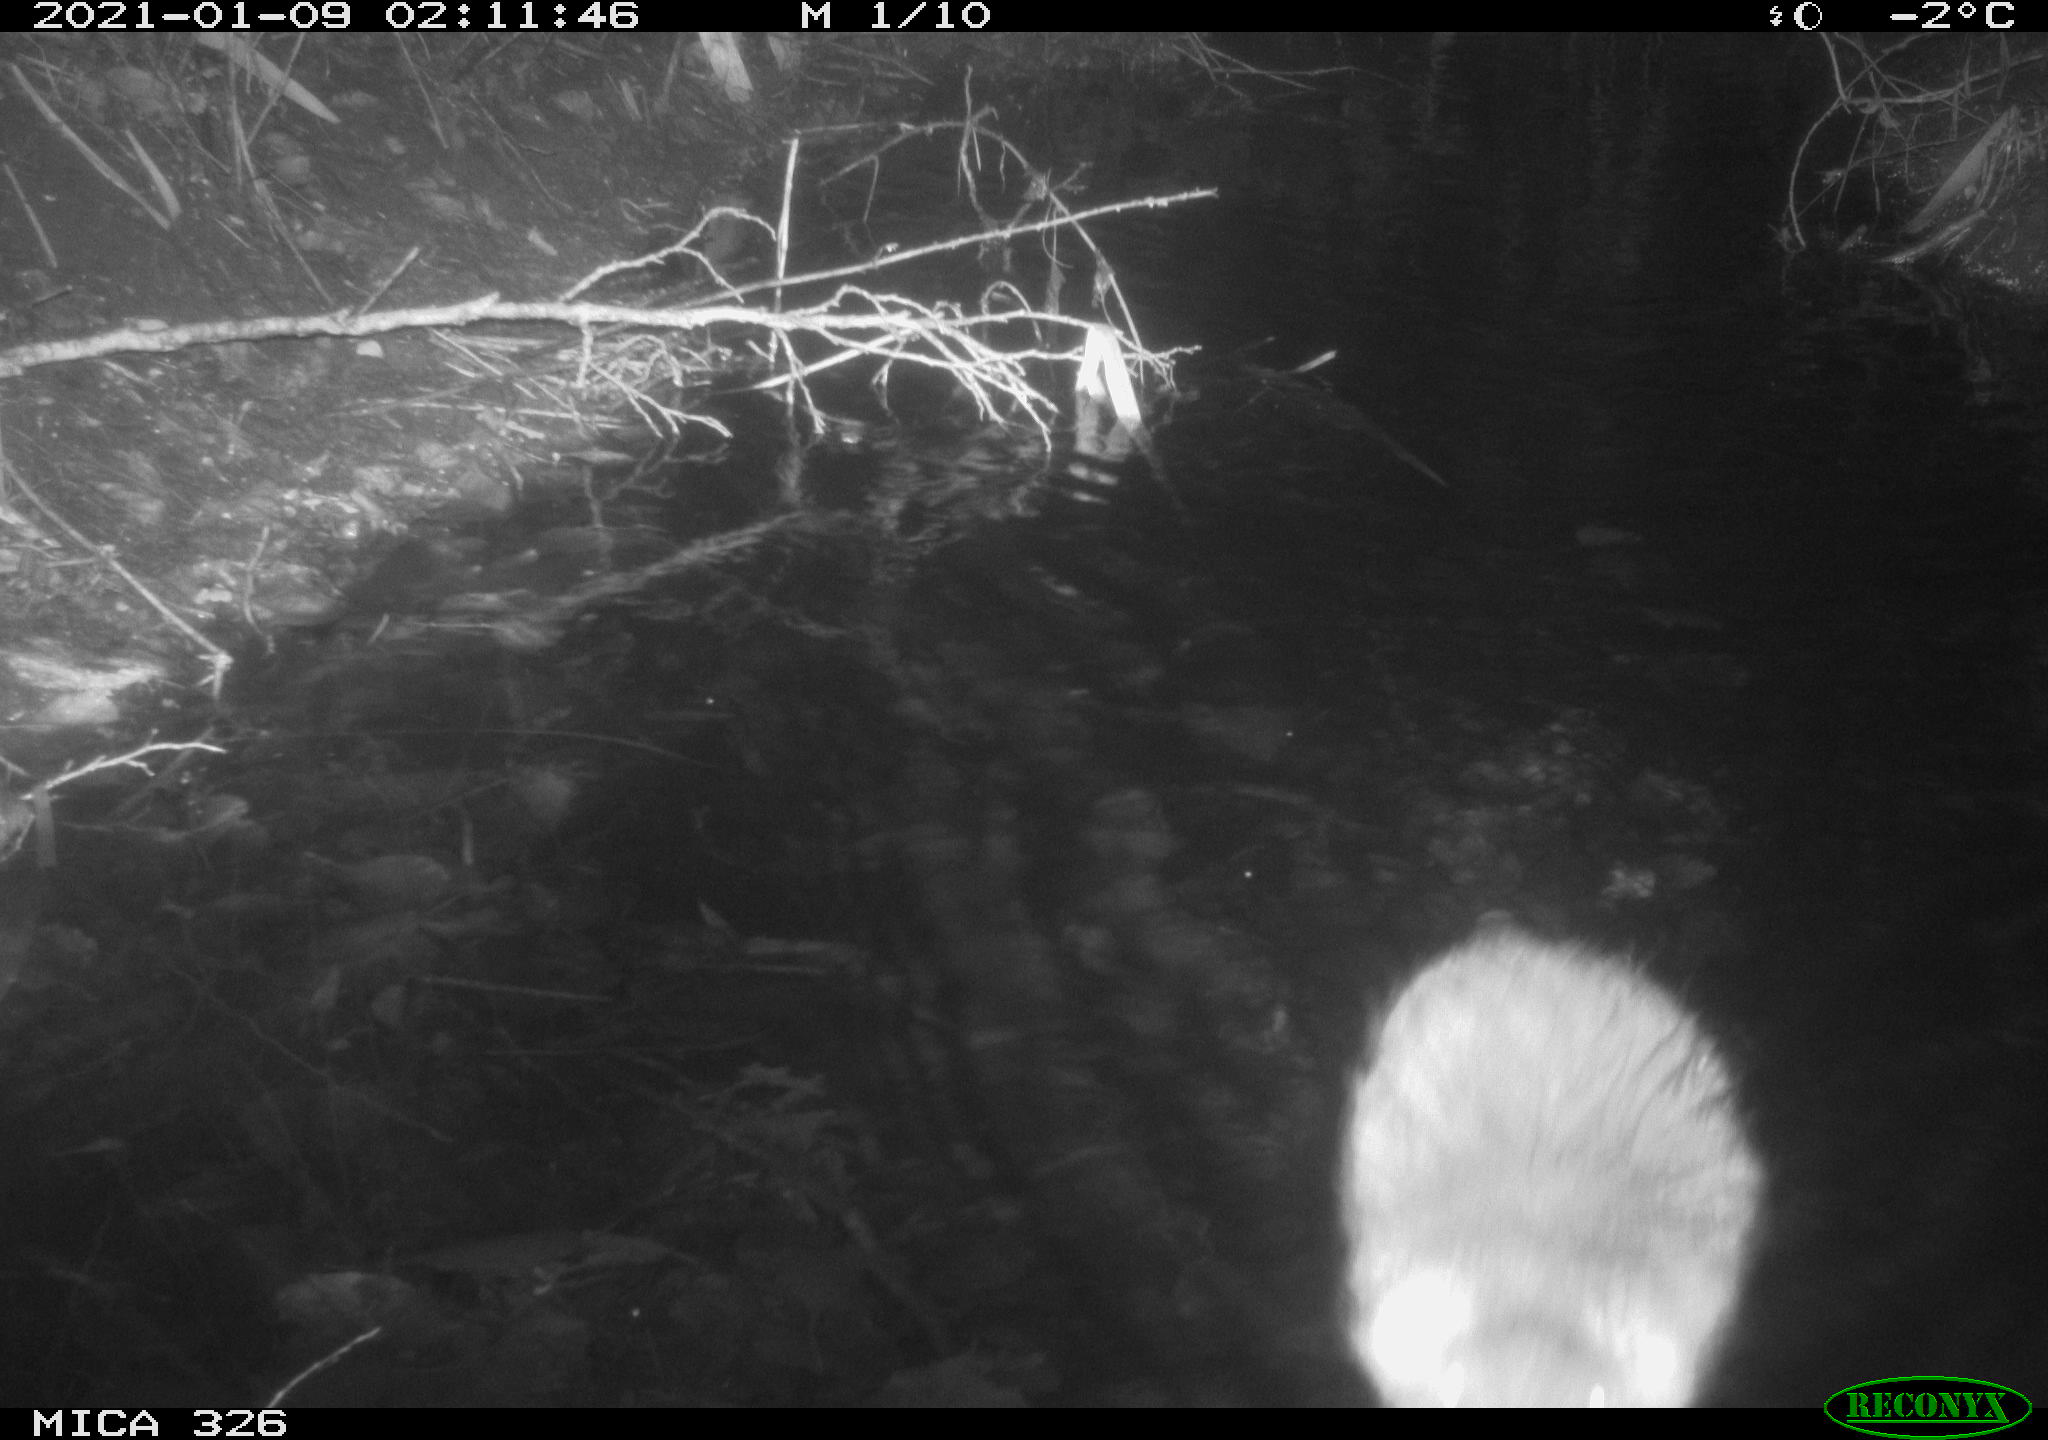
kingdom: Animalia
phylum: Chordata
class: Mammalia
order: Rodentia
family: Myocastoridae
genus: Myocastor
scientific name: Myocastor coypus
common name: Coypu
